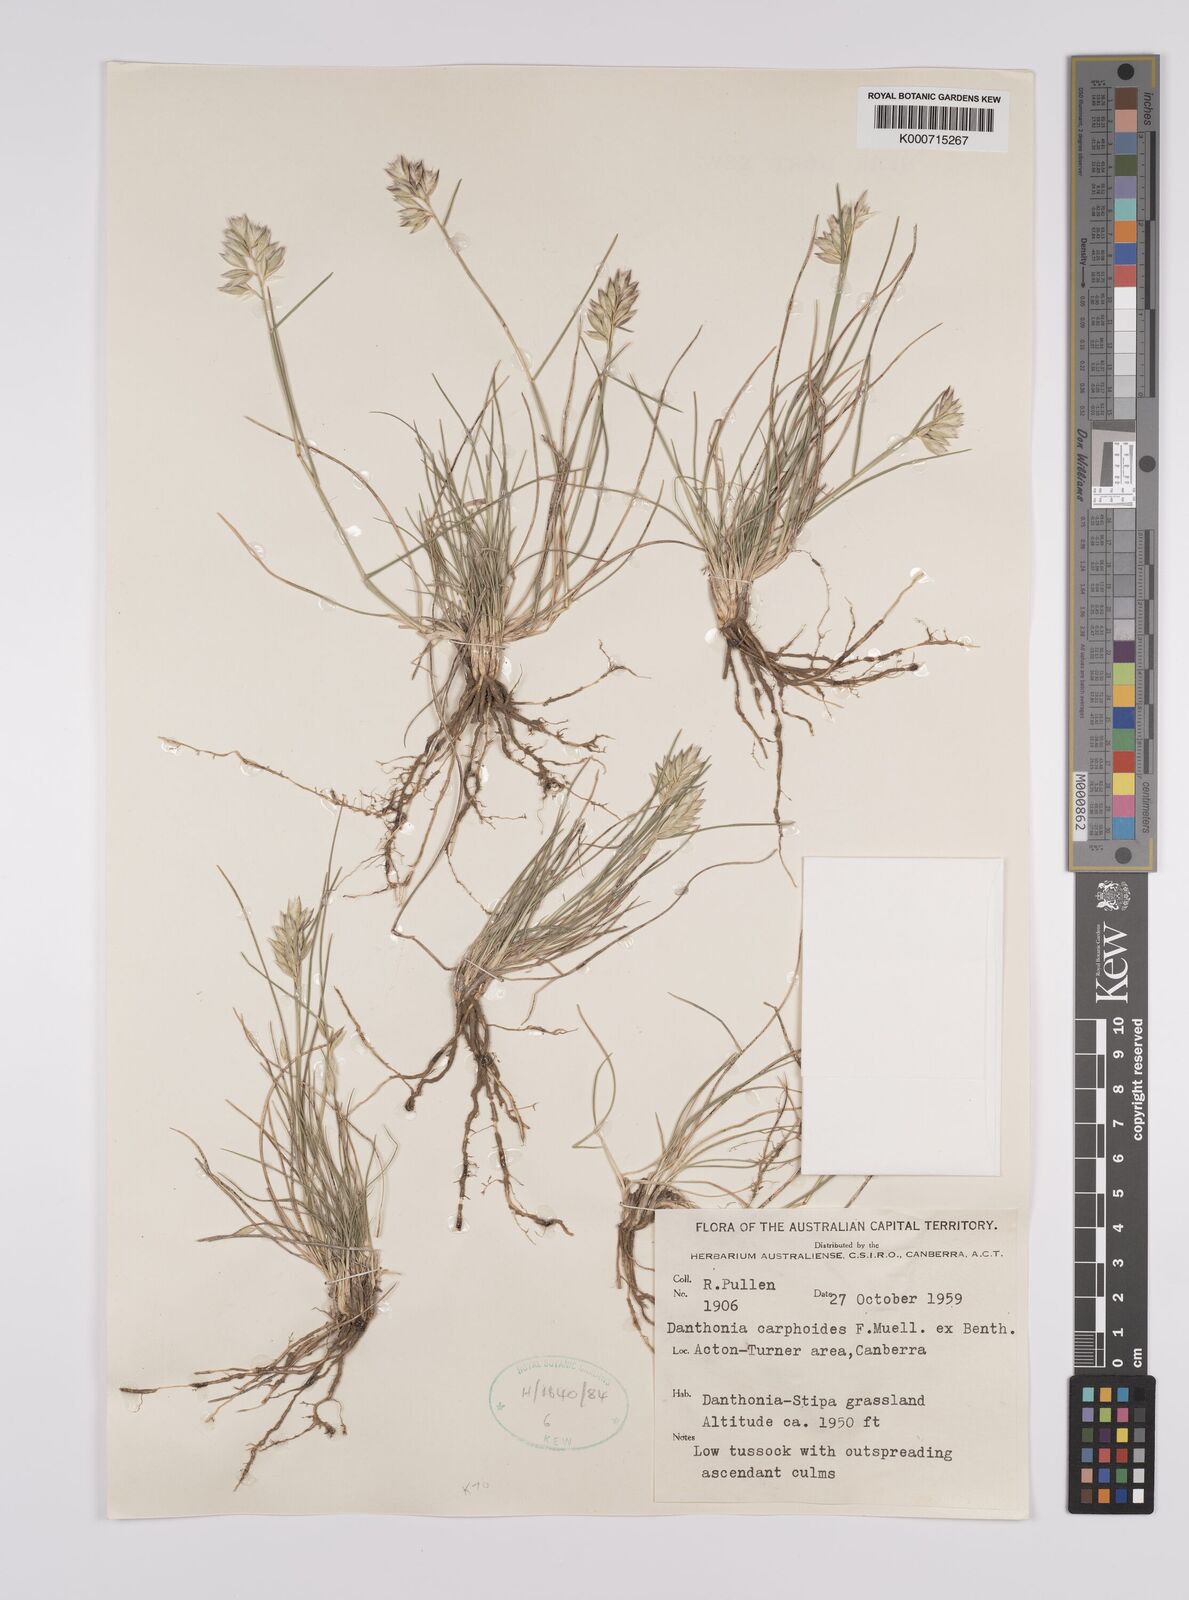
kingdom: Plantae
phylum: Tracheophyta
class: Liliopsida
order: Poales
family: Poaceae
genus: Rytidosperma
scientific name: Rytidosperma carphoides
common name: Short wallaby grass
